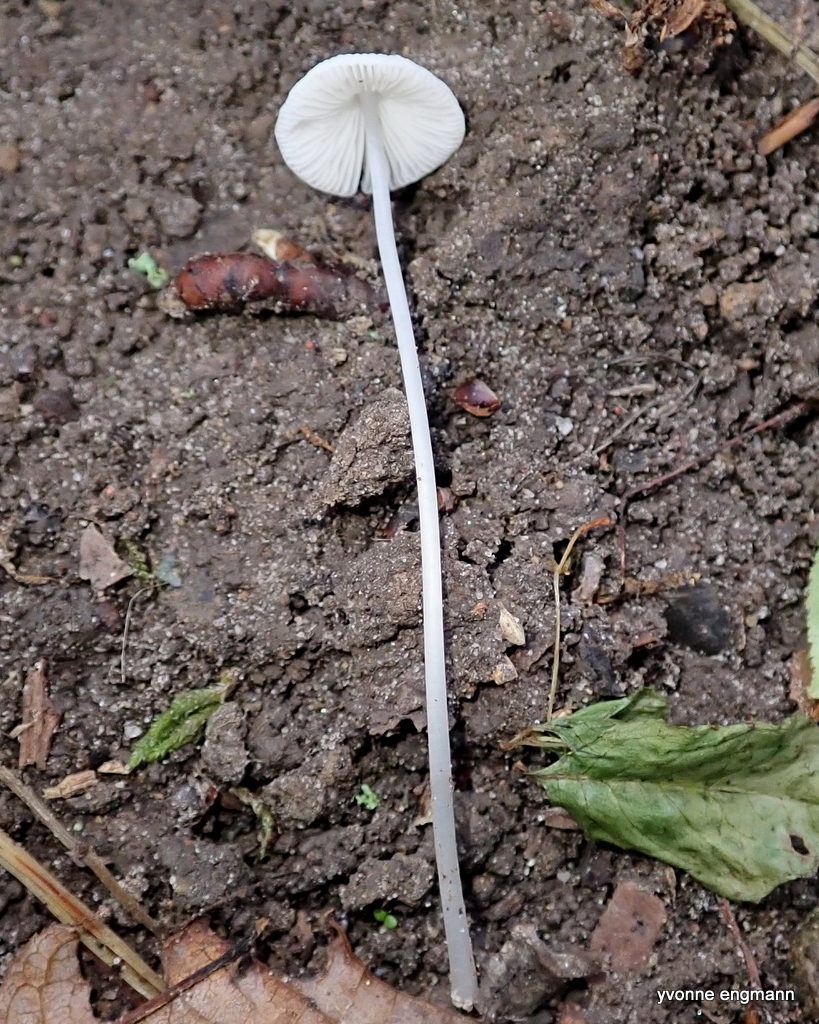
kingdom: Fungi
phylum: Basidiomycota
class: Agaricomycetes
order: Agaricales
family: Mycenaceae
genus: Mycena
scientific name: Mycena
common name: huesvamp
